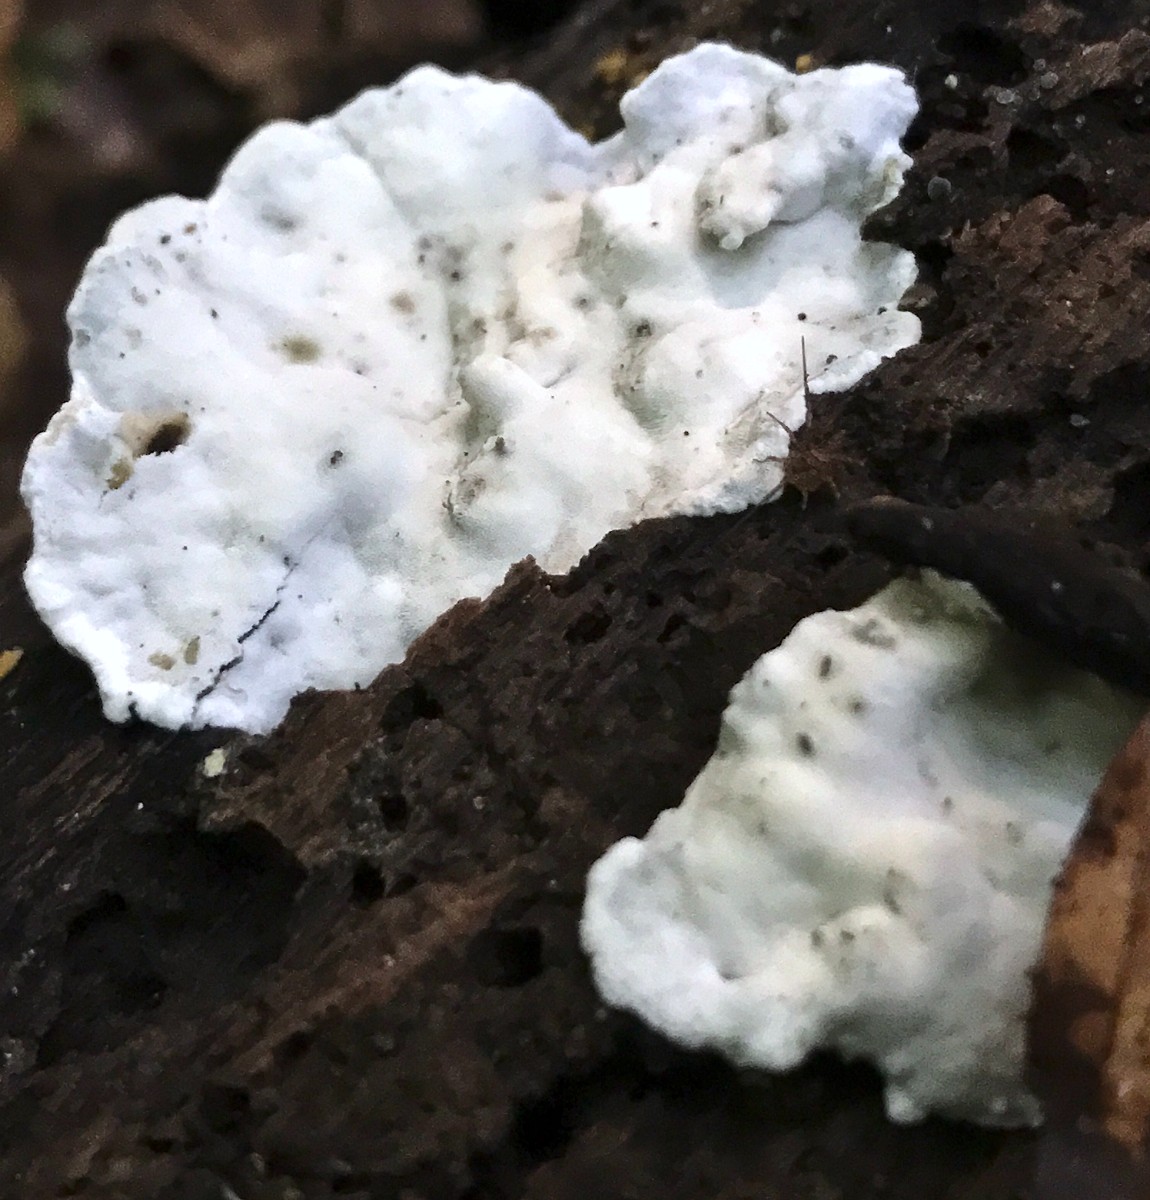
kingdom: Fungi
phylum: Basidiomycota
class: Agaricomycetes
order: Polyporales
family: Incrustoporiaceae
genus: Skeletocutis
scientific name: Skeletocutis nemoralis
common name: stor krystalporesvamp
